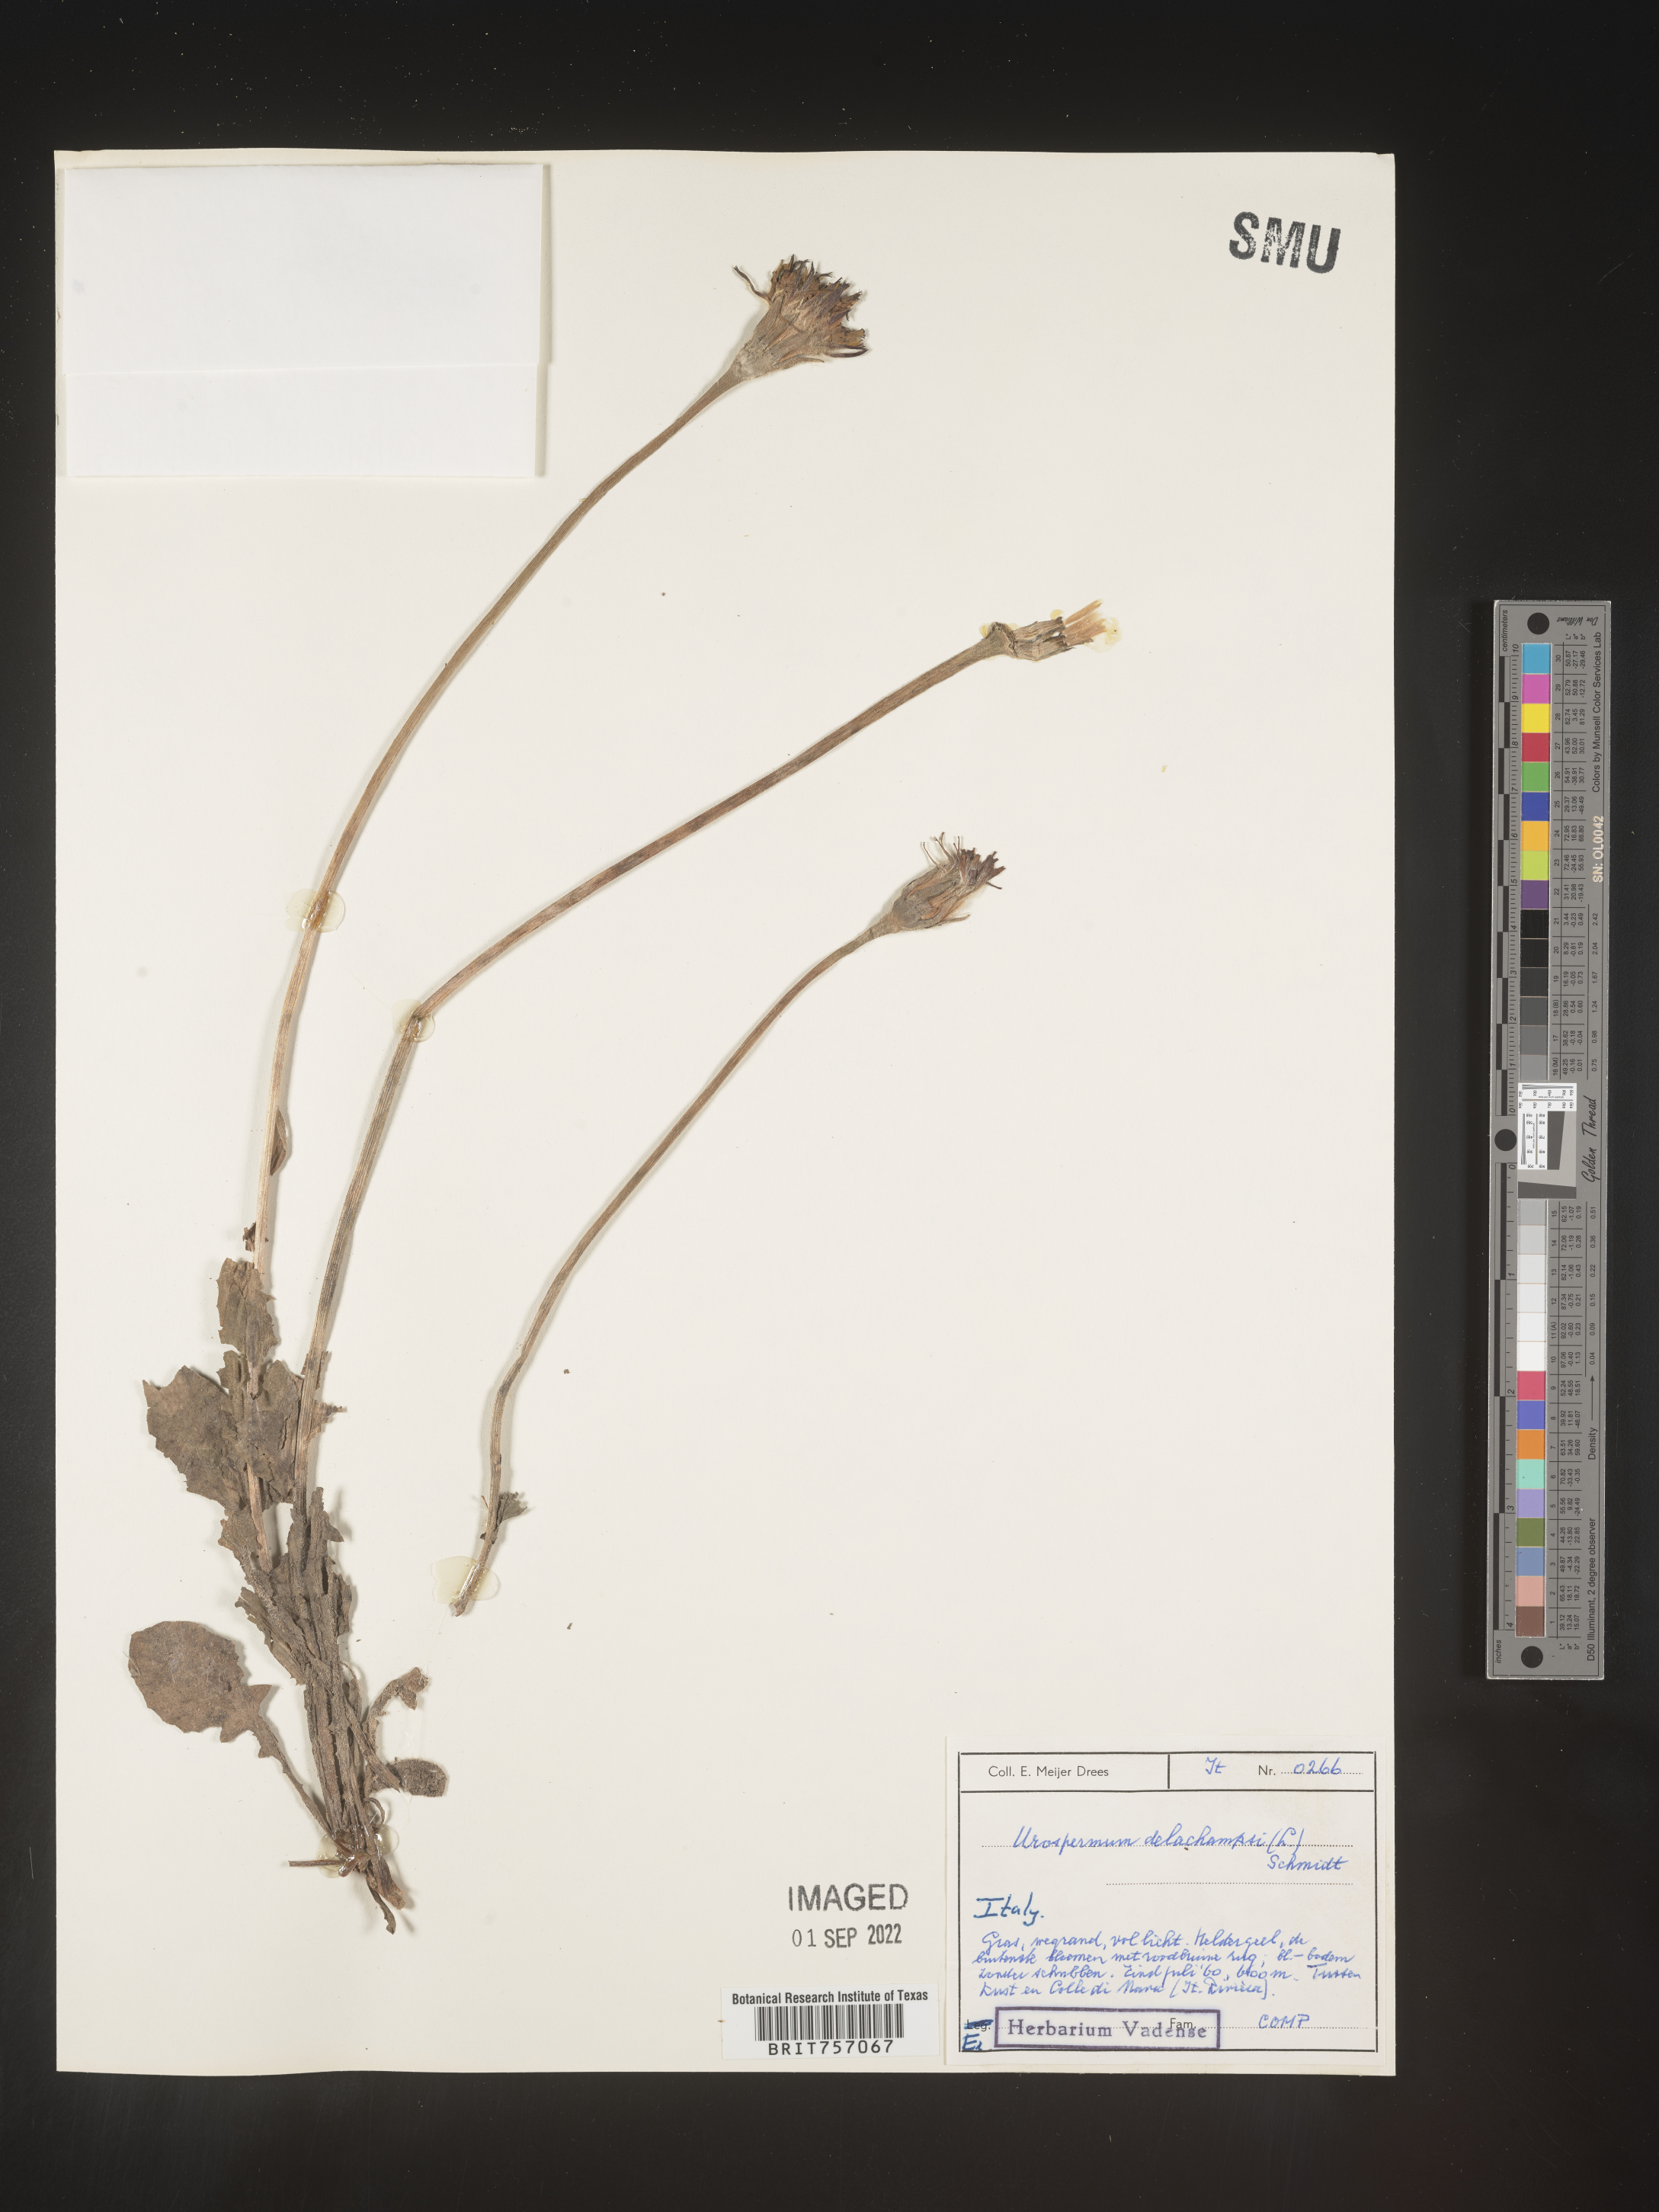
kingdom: Plantae
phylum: Tracheophyta
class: Magnoliopsida
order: Asterales
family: Asteraceae
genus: Urospermum
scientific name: Urospermum
